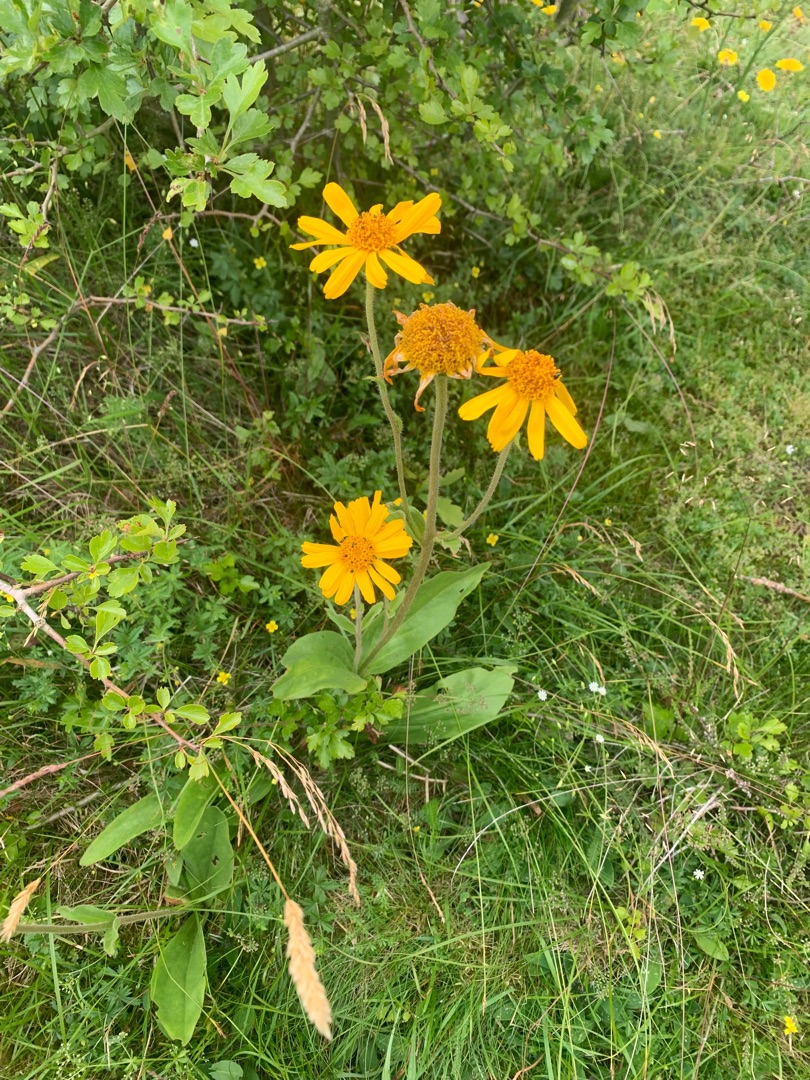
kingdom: Plantae
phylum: Tracheophyta
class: Magnoliopsida
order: Asterales
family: Asteraceae
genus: Arnica
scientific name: Arnica montana
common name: Guldblomme
